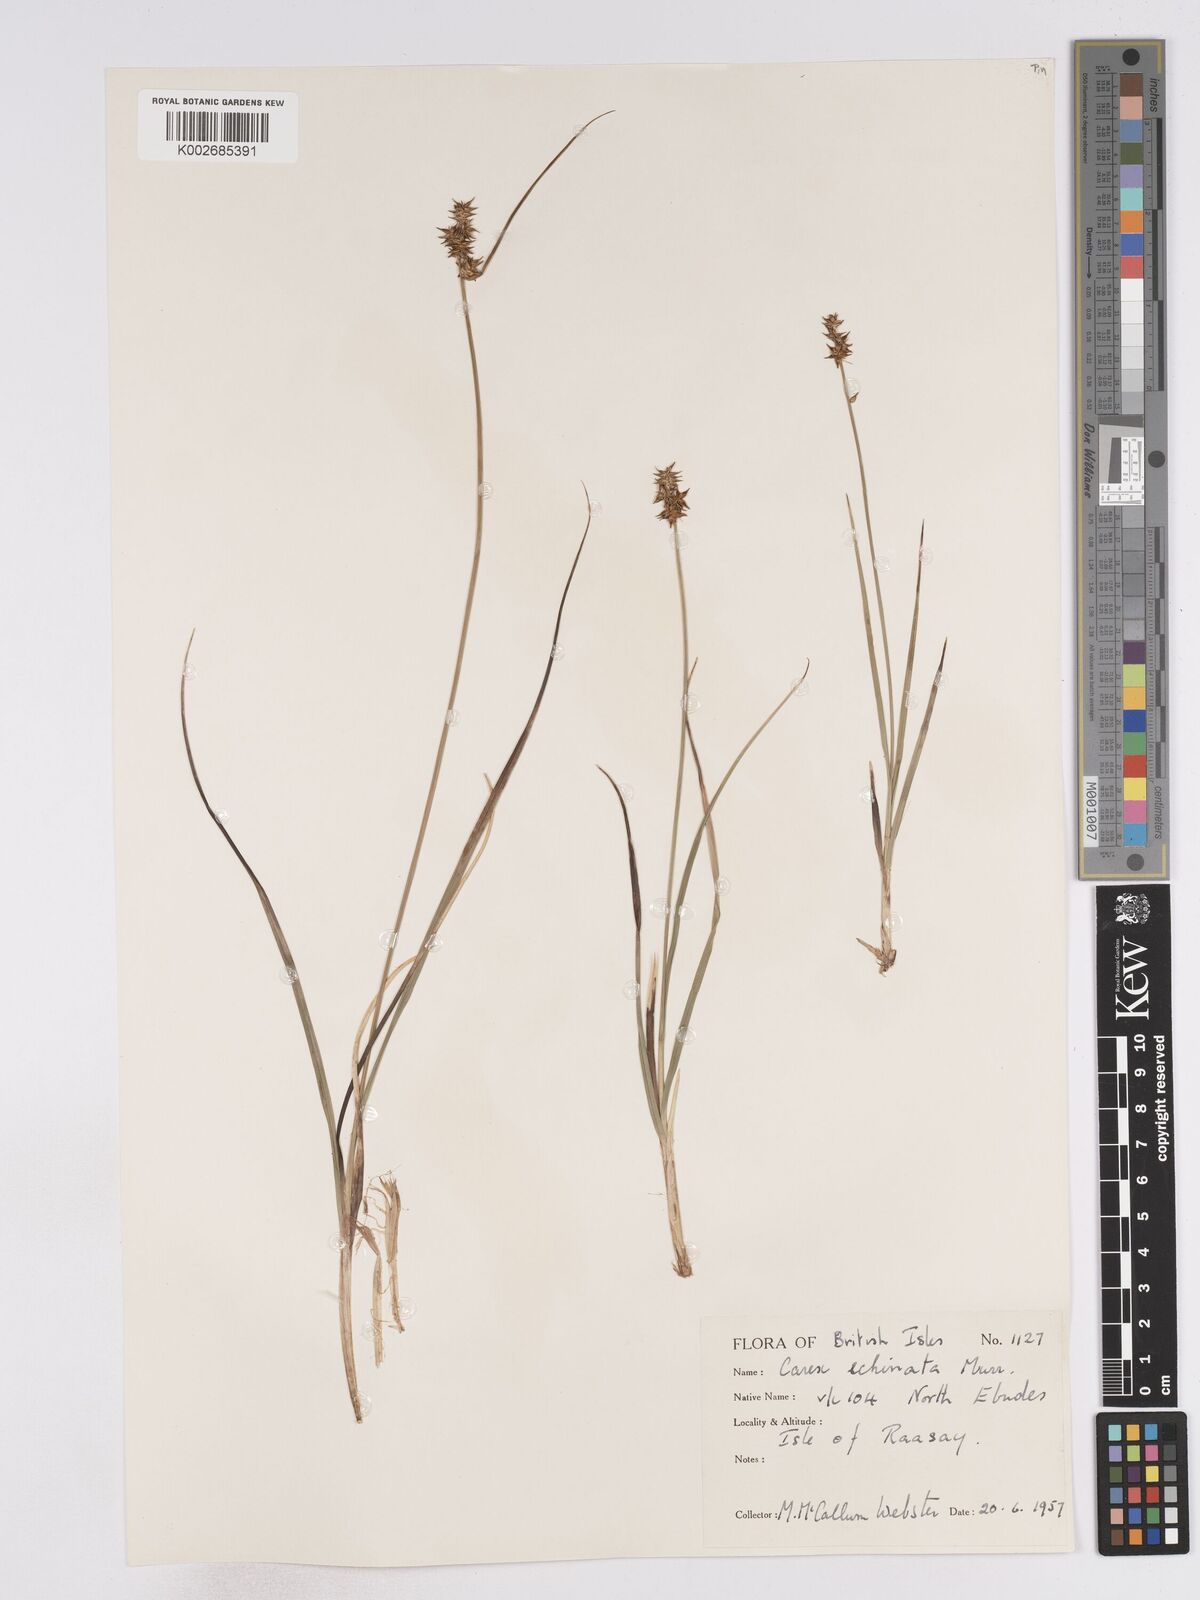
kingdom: Plantae
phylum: Tracheophyta
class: Liliopsida
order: Poales
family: Cyperaceae
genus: Carex
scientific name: Carex echinata
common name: Star sedge
